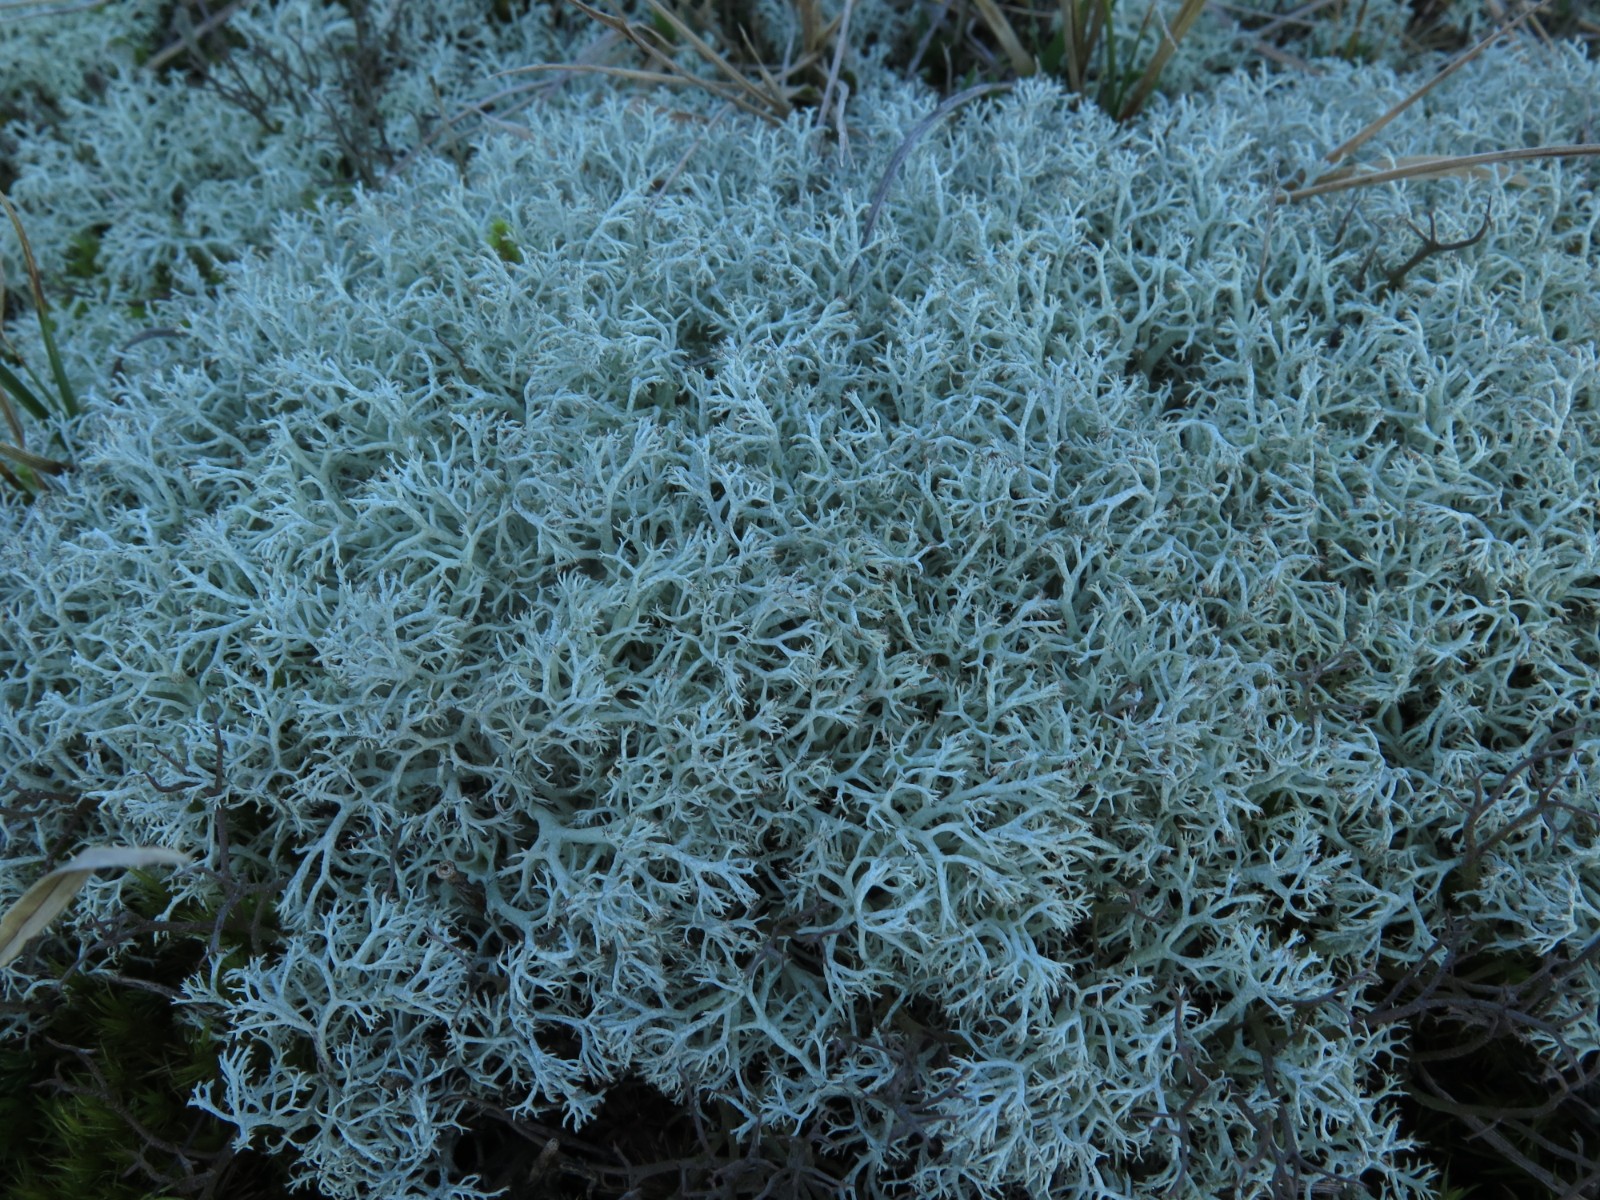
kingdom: Fungi
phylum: Ascomycota
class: Lecanoromycetes
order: Lecanorales
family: Cladoniaceae
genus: Cladonia
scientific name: Cladonia portentosa
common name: hede-rensdyrlav
